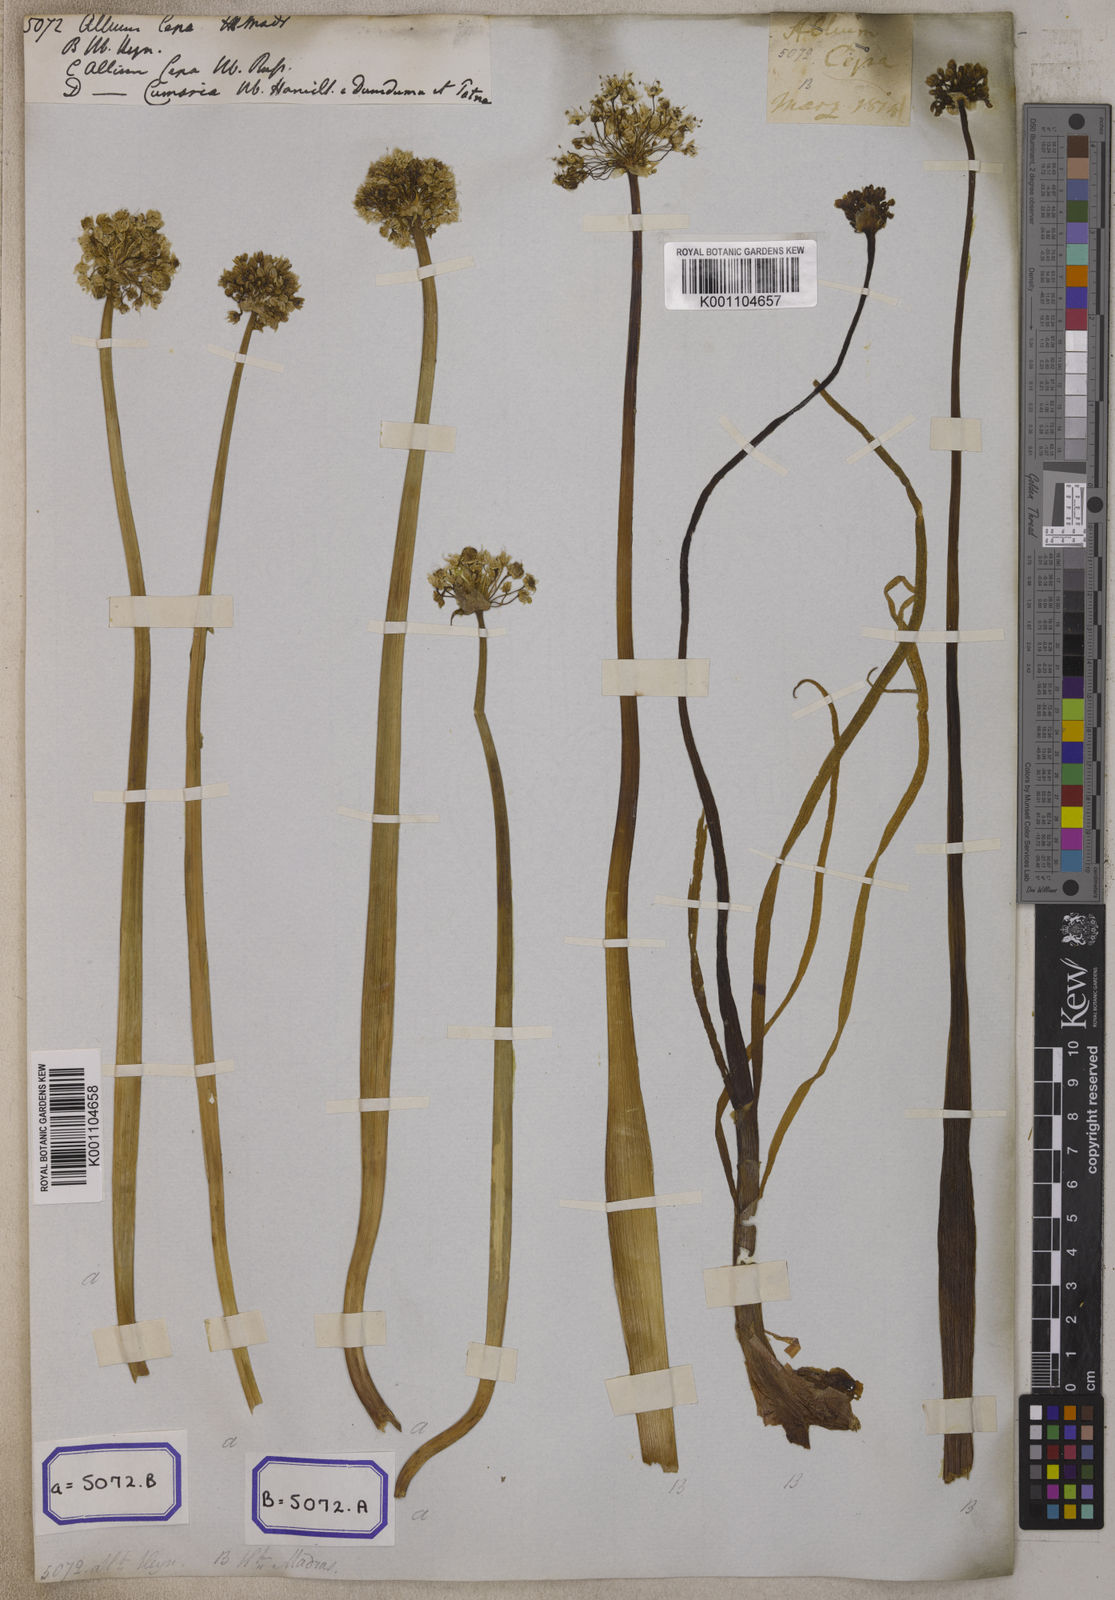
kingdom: Plantae
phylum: Tracheophyta
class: Liliopsida
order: Asparagales
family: Amaryllidaceae
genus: Allium
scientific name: Allium cepa
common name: Onion
